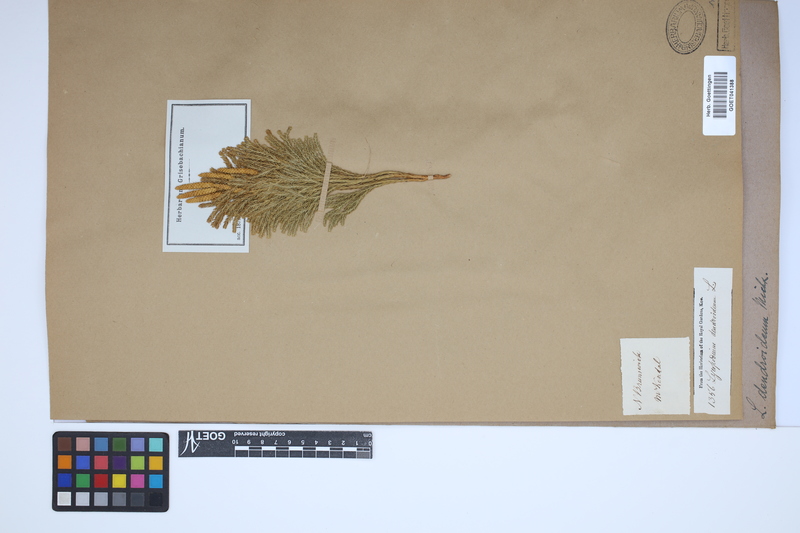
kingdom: Plantae
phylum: Tracheophyta
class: Lycopodiopsida
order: Lycopodiales
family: Lycopodiaceae
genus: Dendrolycopodium
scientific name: Dendrolycopodium dendroideum
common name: Northern tree-clubmoss
